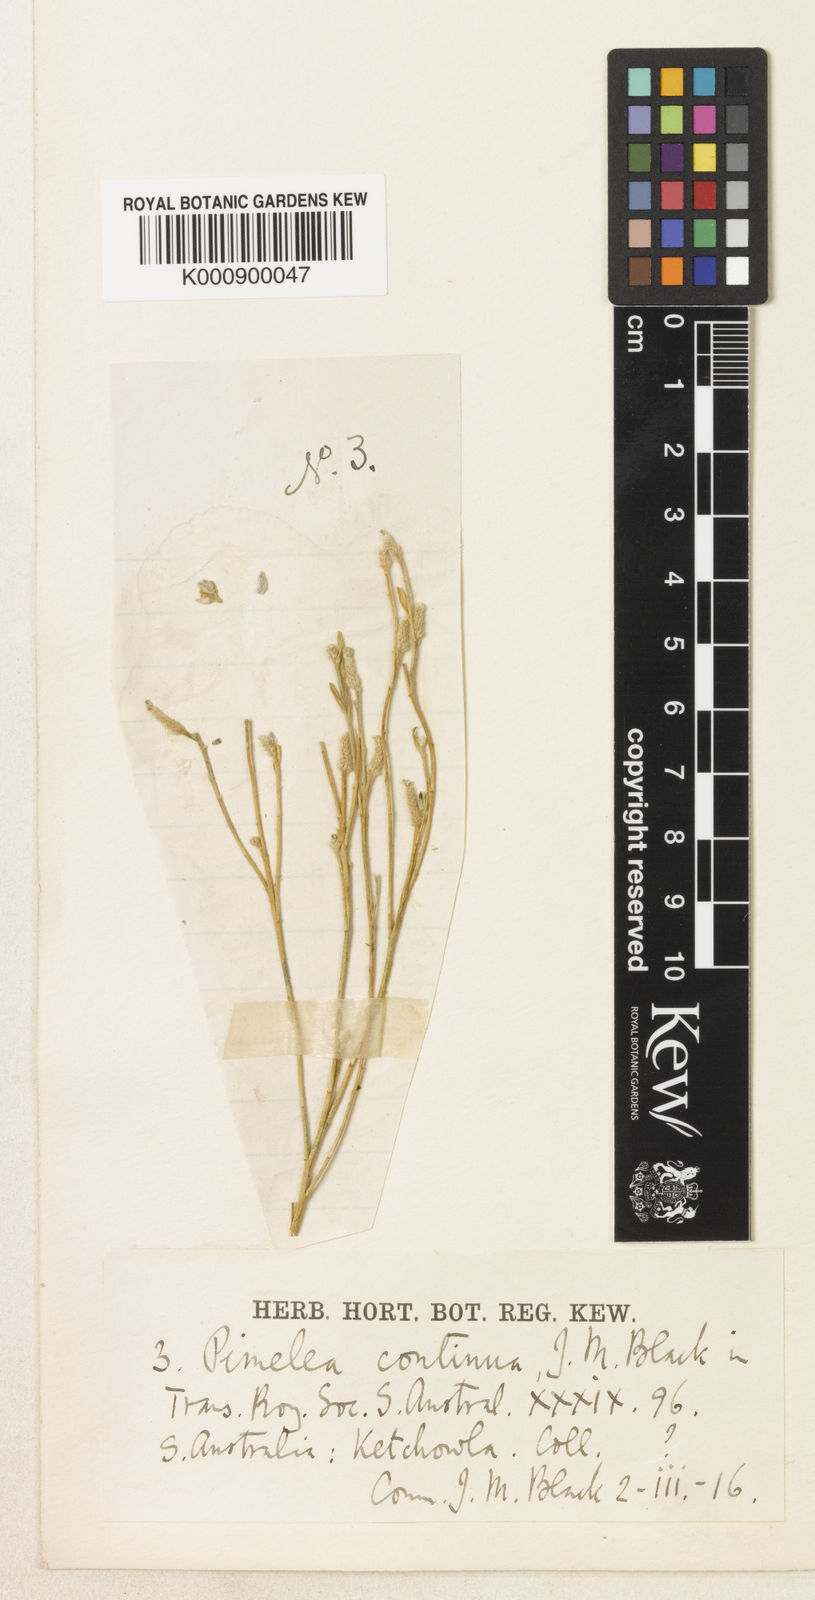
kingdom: Plantae
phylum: Tracheophyta
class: Magnoliopsida
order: Malvales
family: Thymelaeaceae
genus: Pimelea
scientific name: Pimelea simplex
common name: Desert riceflower
